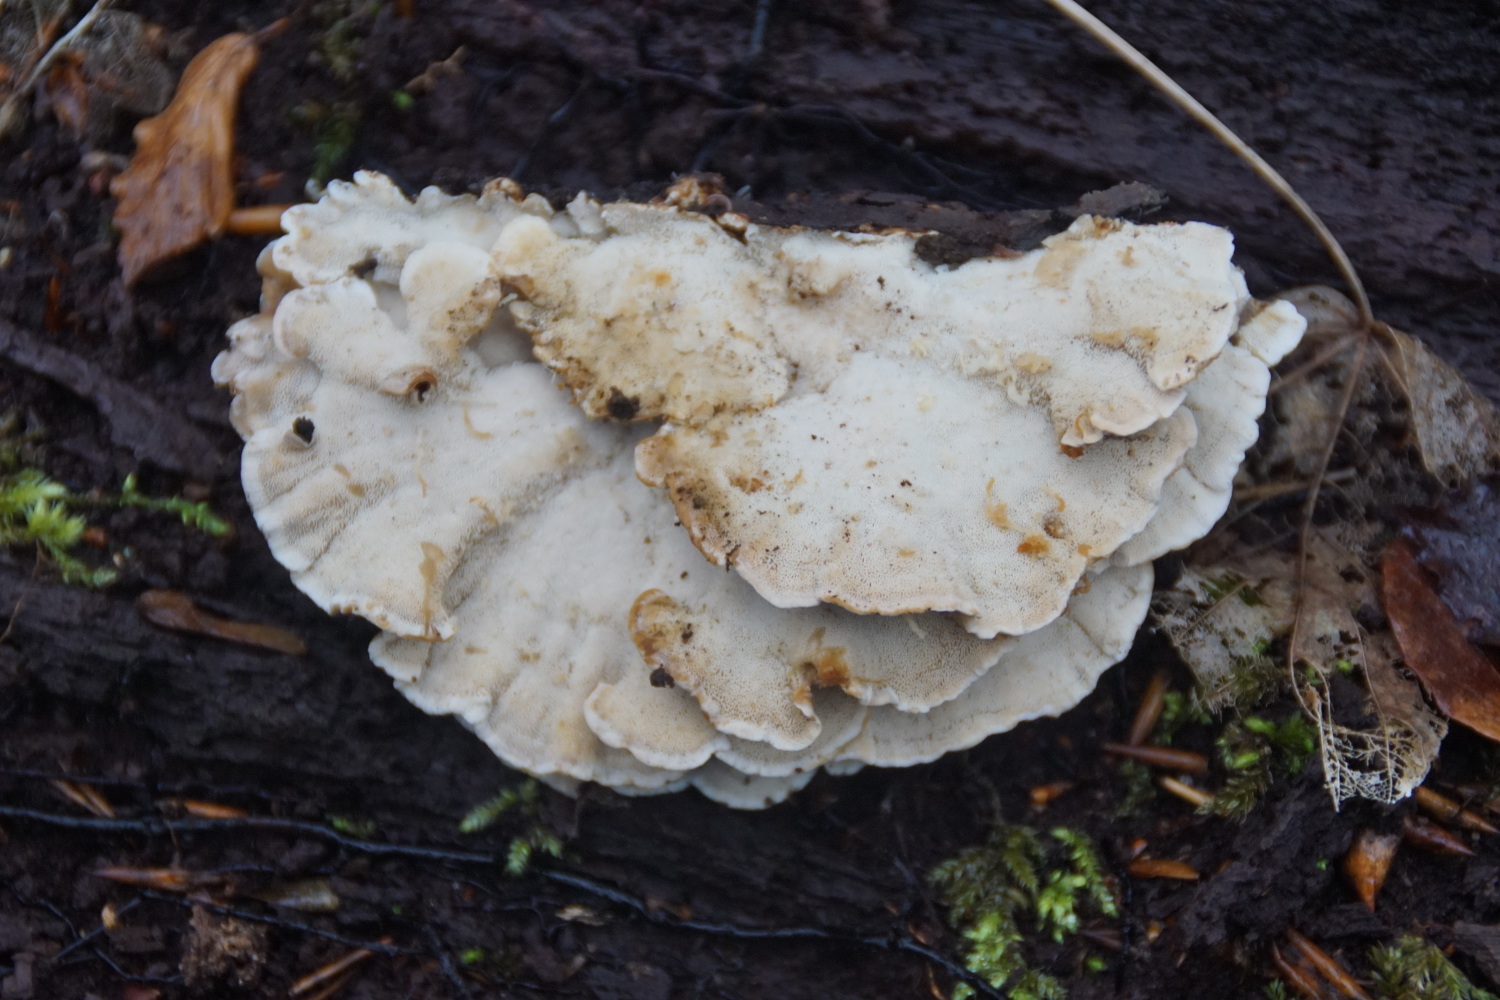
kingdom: Fungi
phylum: Basidiomycota
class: Agaricomycetes
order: Polyporales
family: Polyporaceae
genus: Trametes
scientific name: Trametes versicolor
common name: broget læderporesvamp
